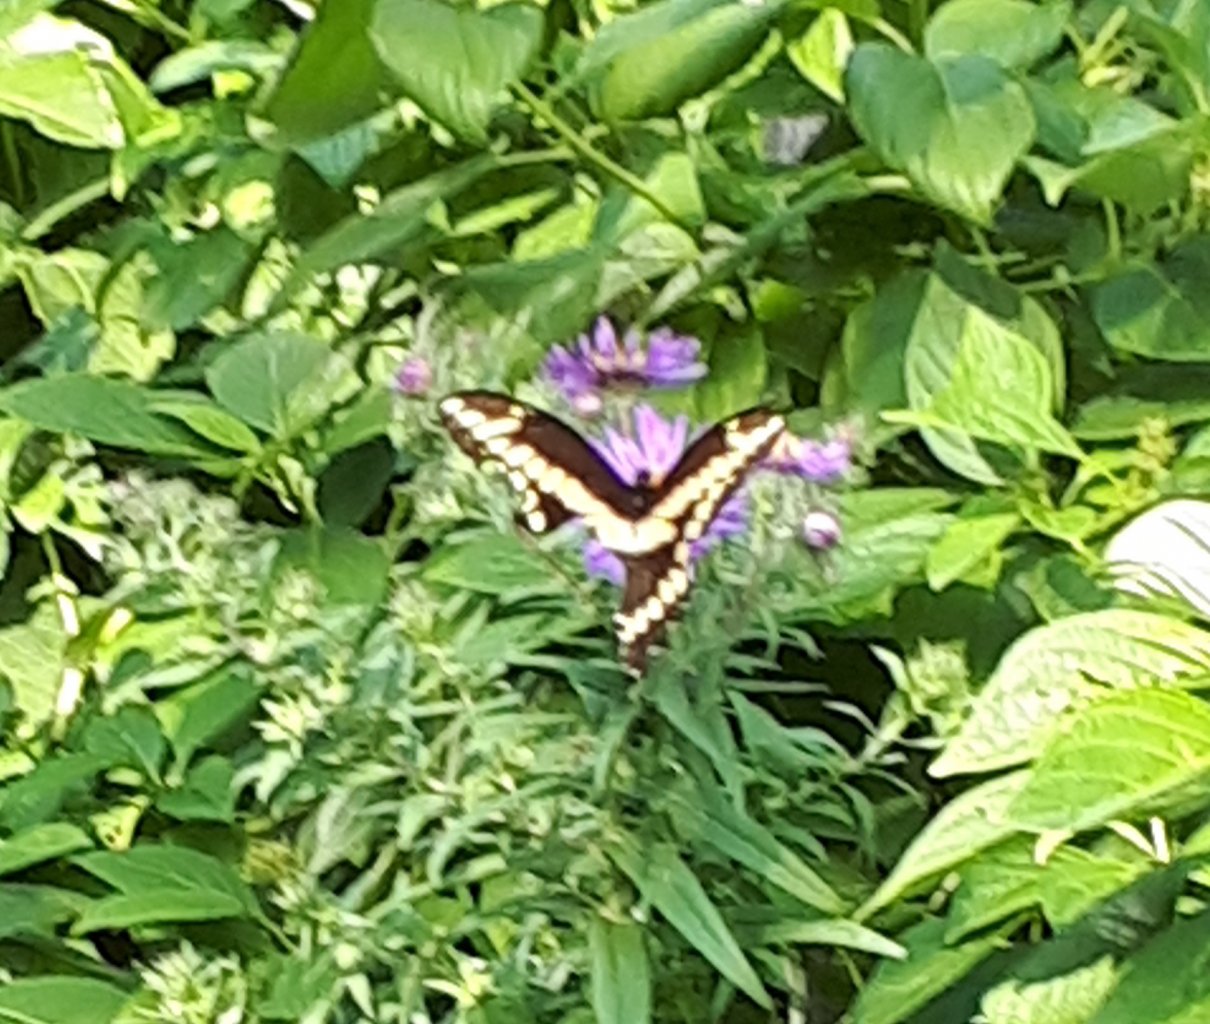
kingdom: Animalia
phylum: Arthropoda
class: Insecta
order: Lepidoptera
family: Papilionidae
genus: Papilio
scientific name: Papilio cresphontes
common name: Eastern Giant Swallowtail
